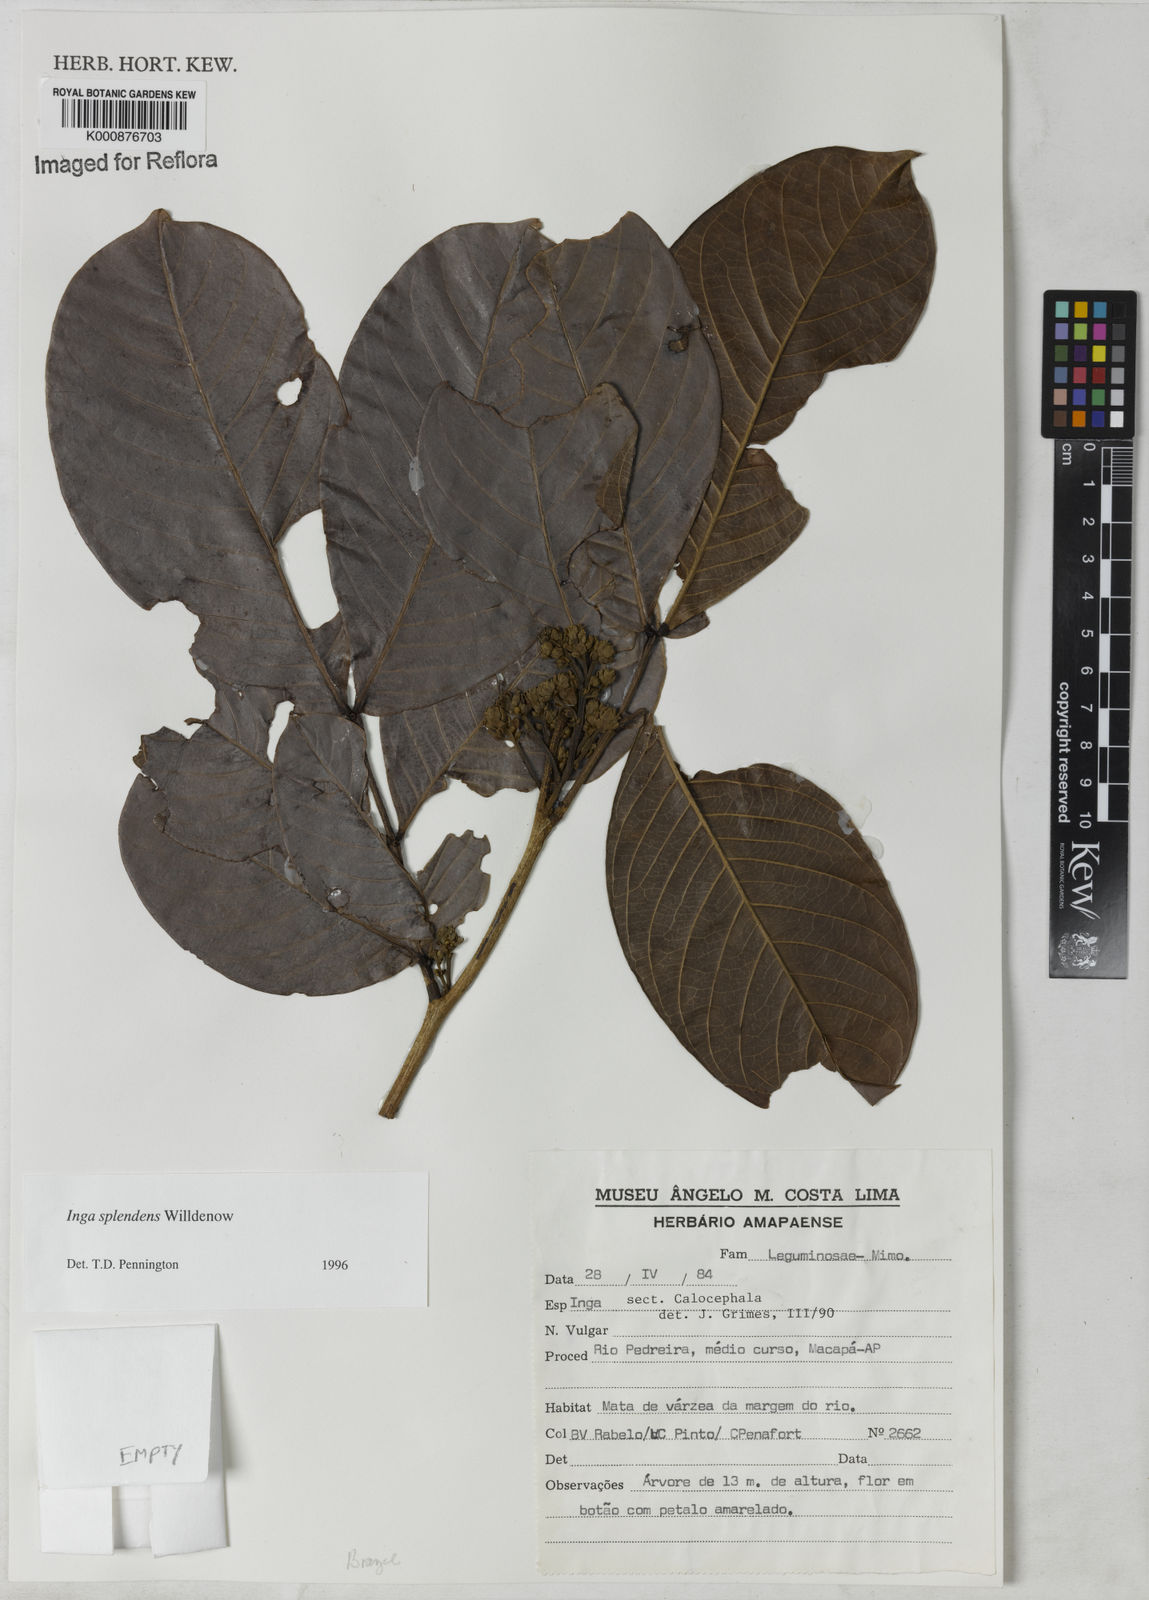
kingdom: Plantae
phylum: Tracheophyta
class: Magnoliopsida
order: Fabales
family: Fabaceae
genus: Inga
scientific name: Inga splendens
